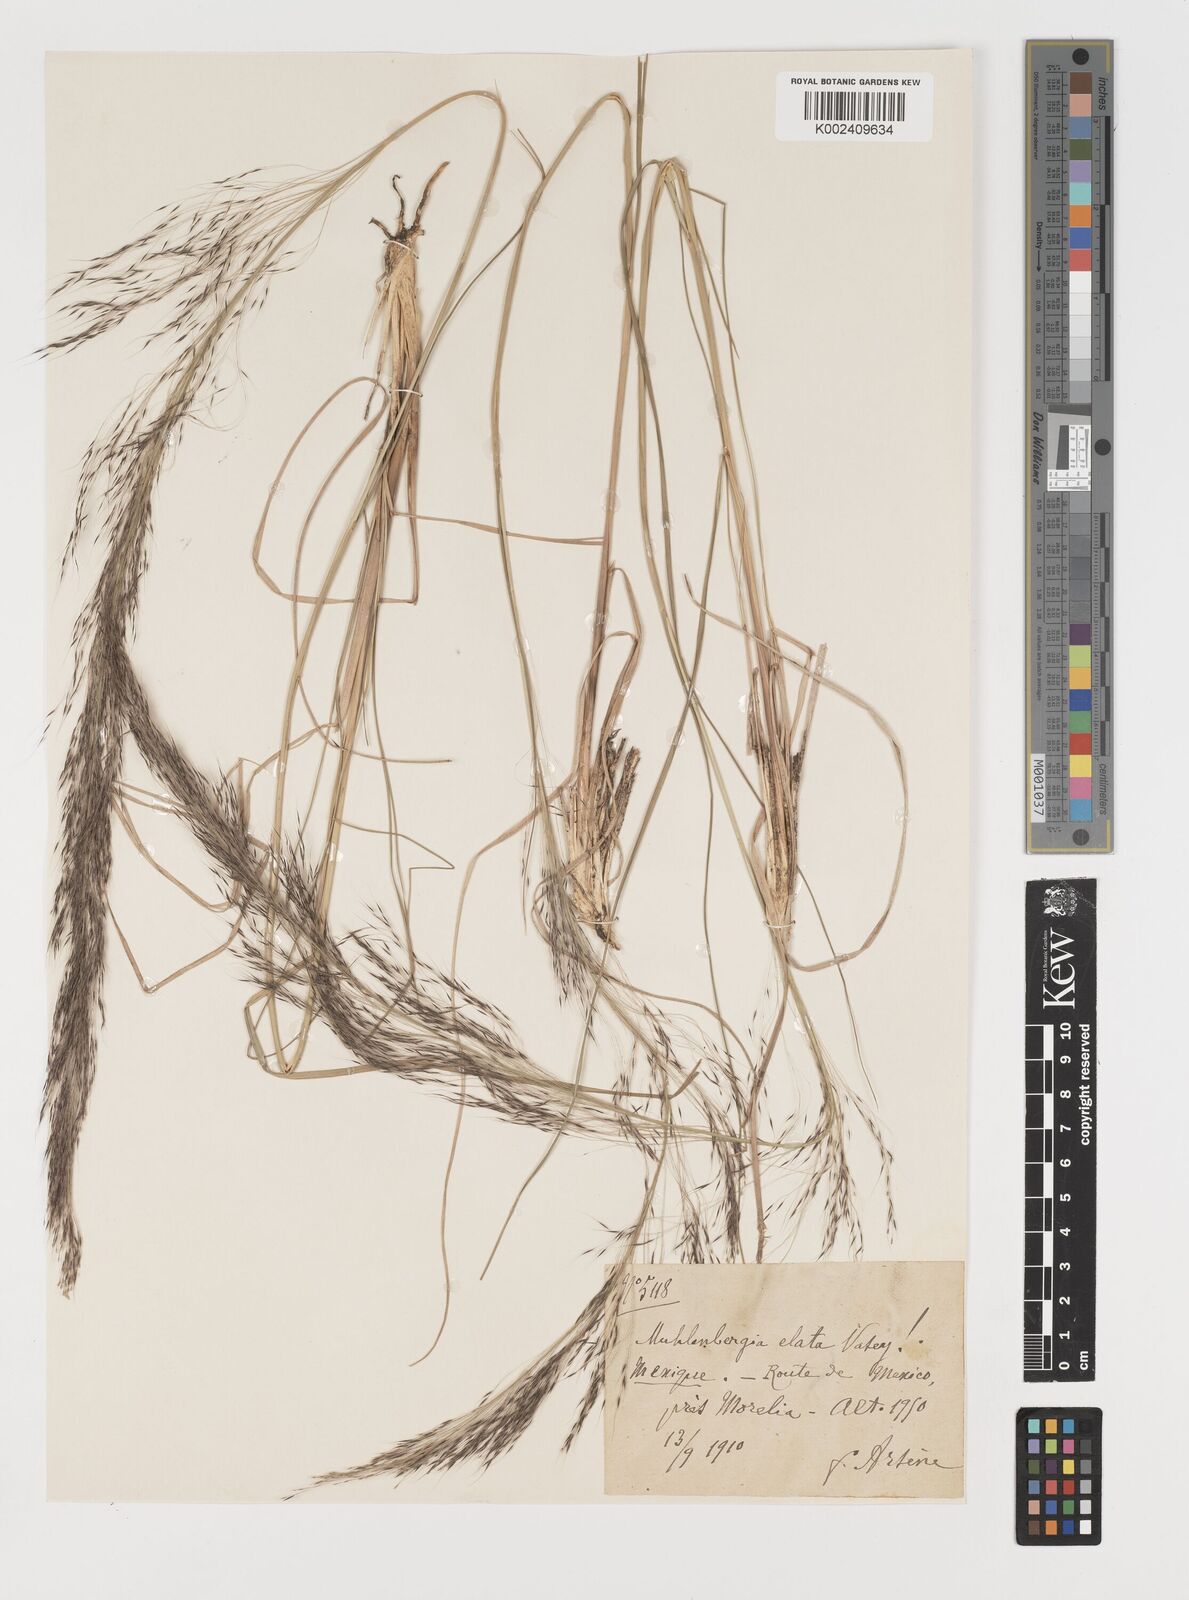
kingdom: Plantae
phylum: Tracheophyta
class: Liliopsida
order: Poales
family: Poaceae
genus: Muhlenbergia
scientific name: Muhlenbergia stricta
